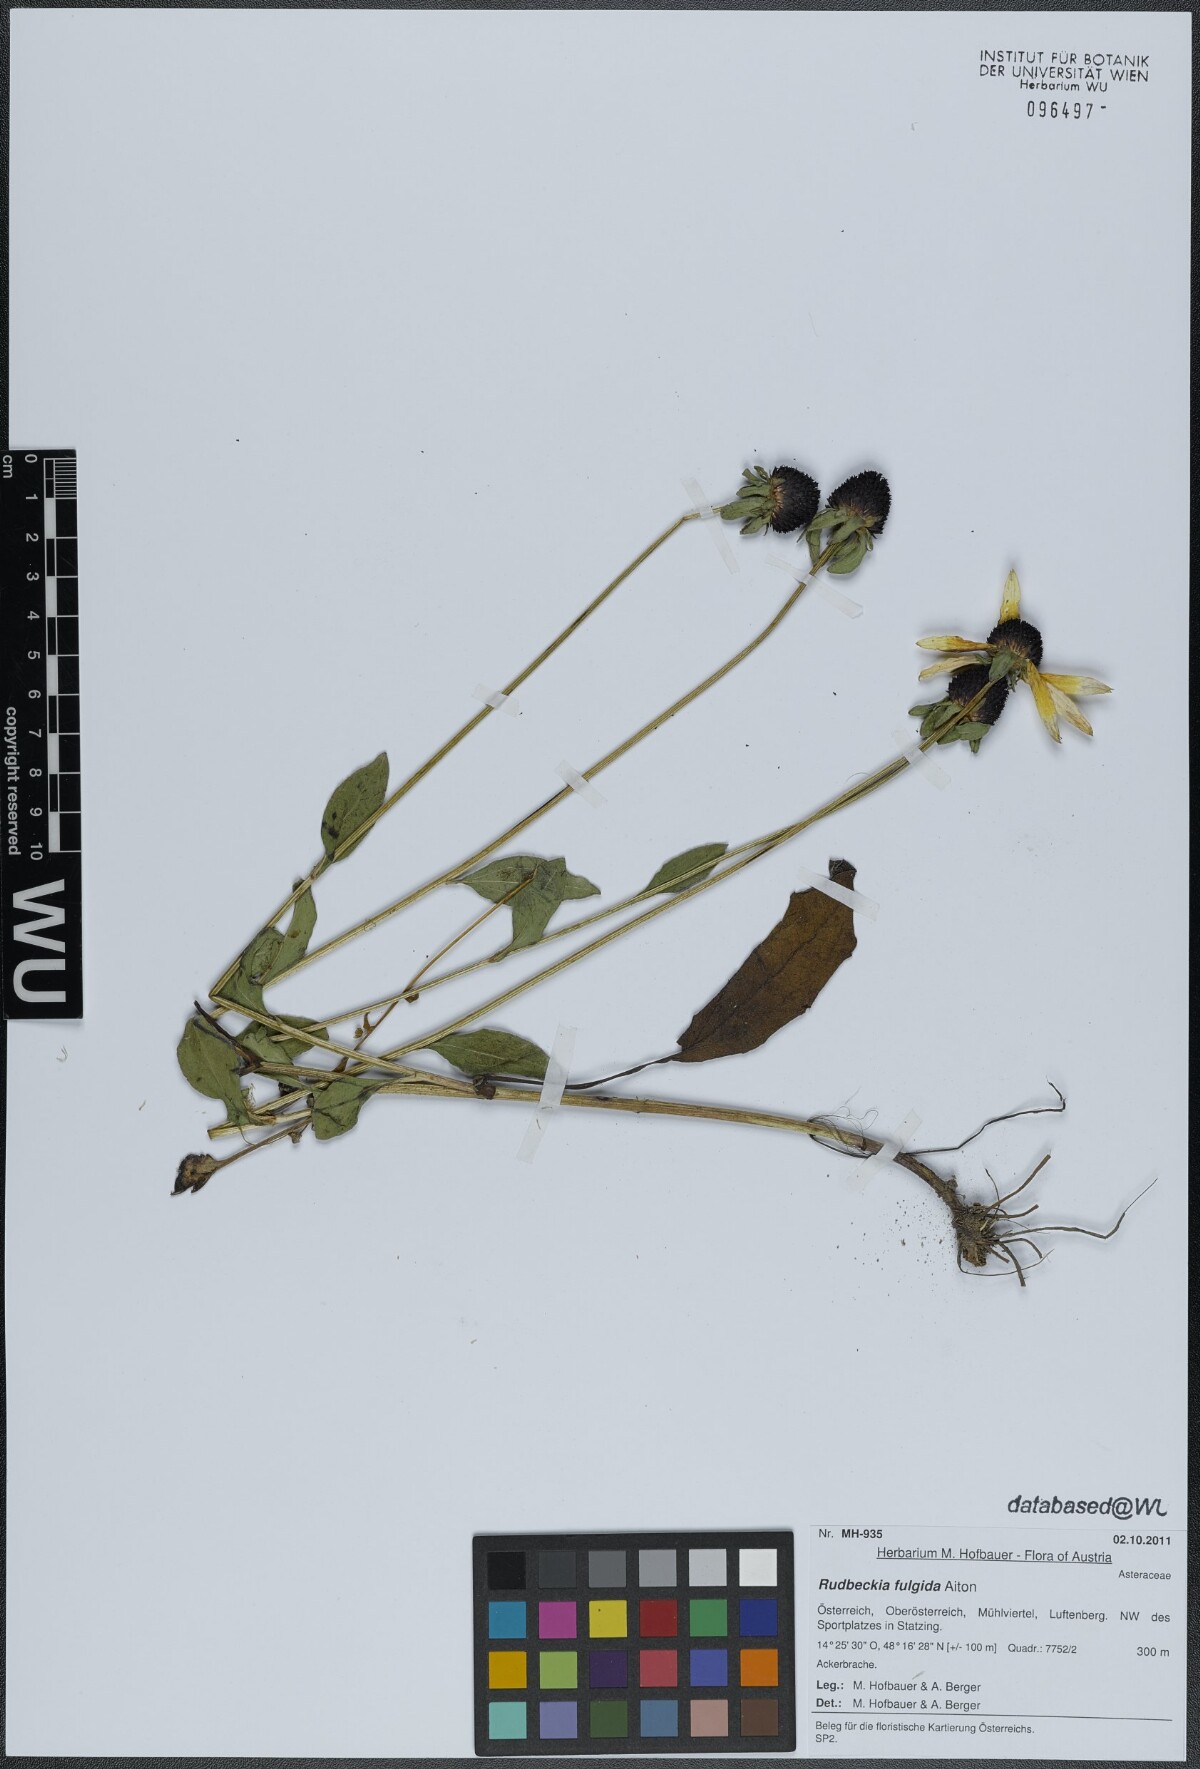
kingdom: Plantae
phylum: Tracheophyta
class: Magnoliopsida
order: Asterales
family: Asteraceae
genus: Rudbeckia
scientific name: Rudbeckia fulgida
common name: Perennial coneflower
